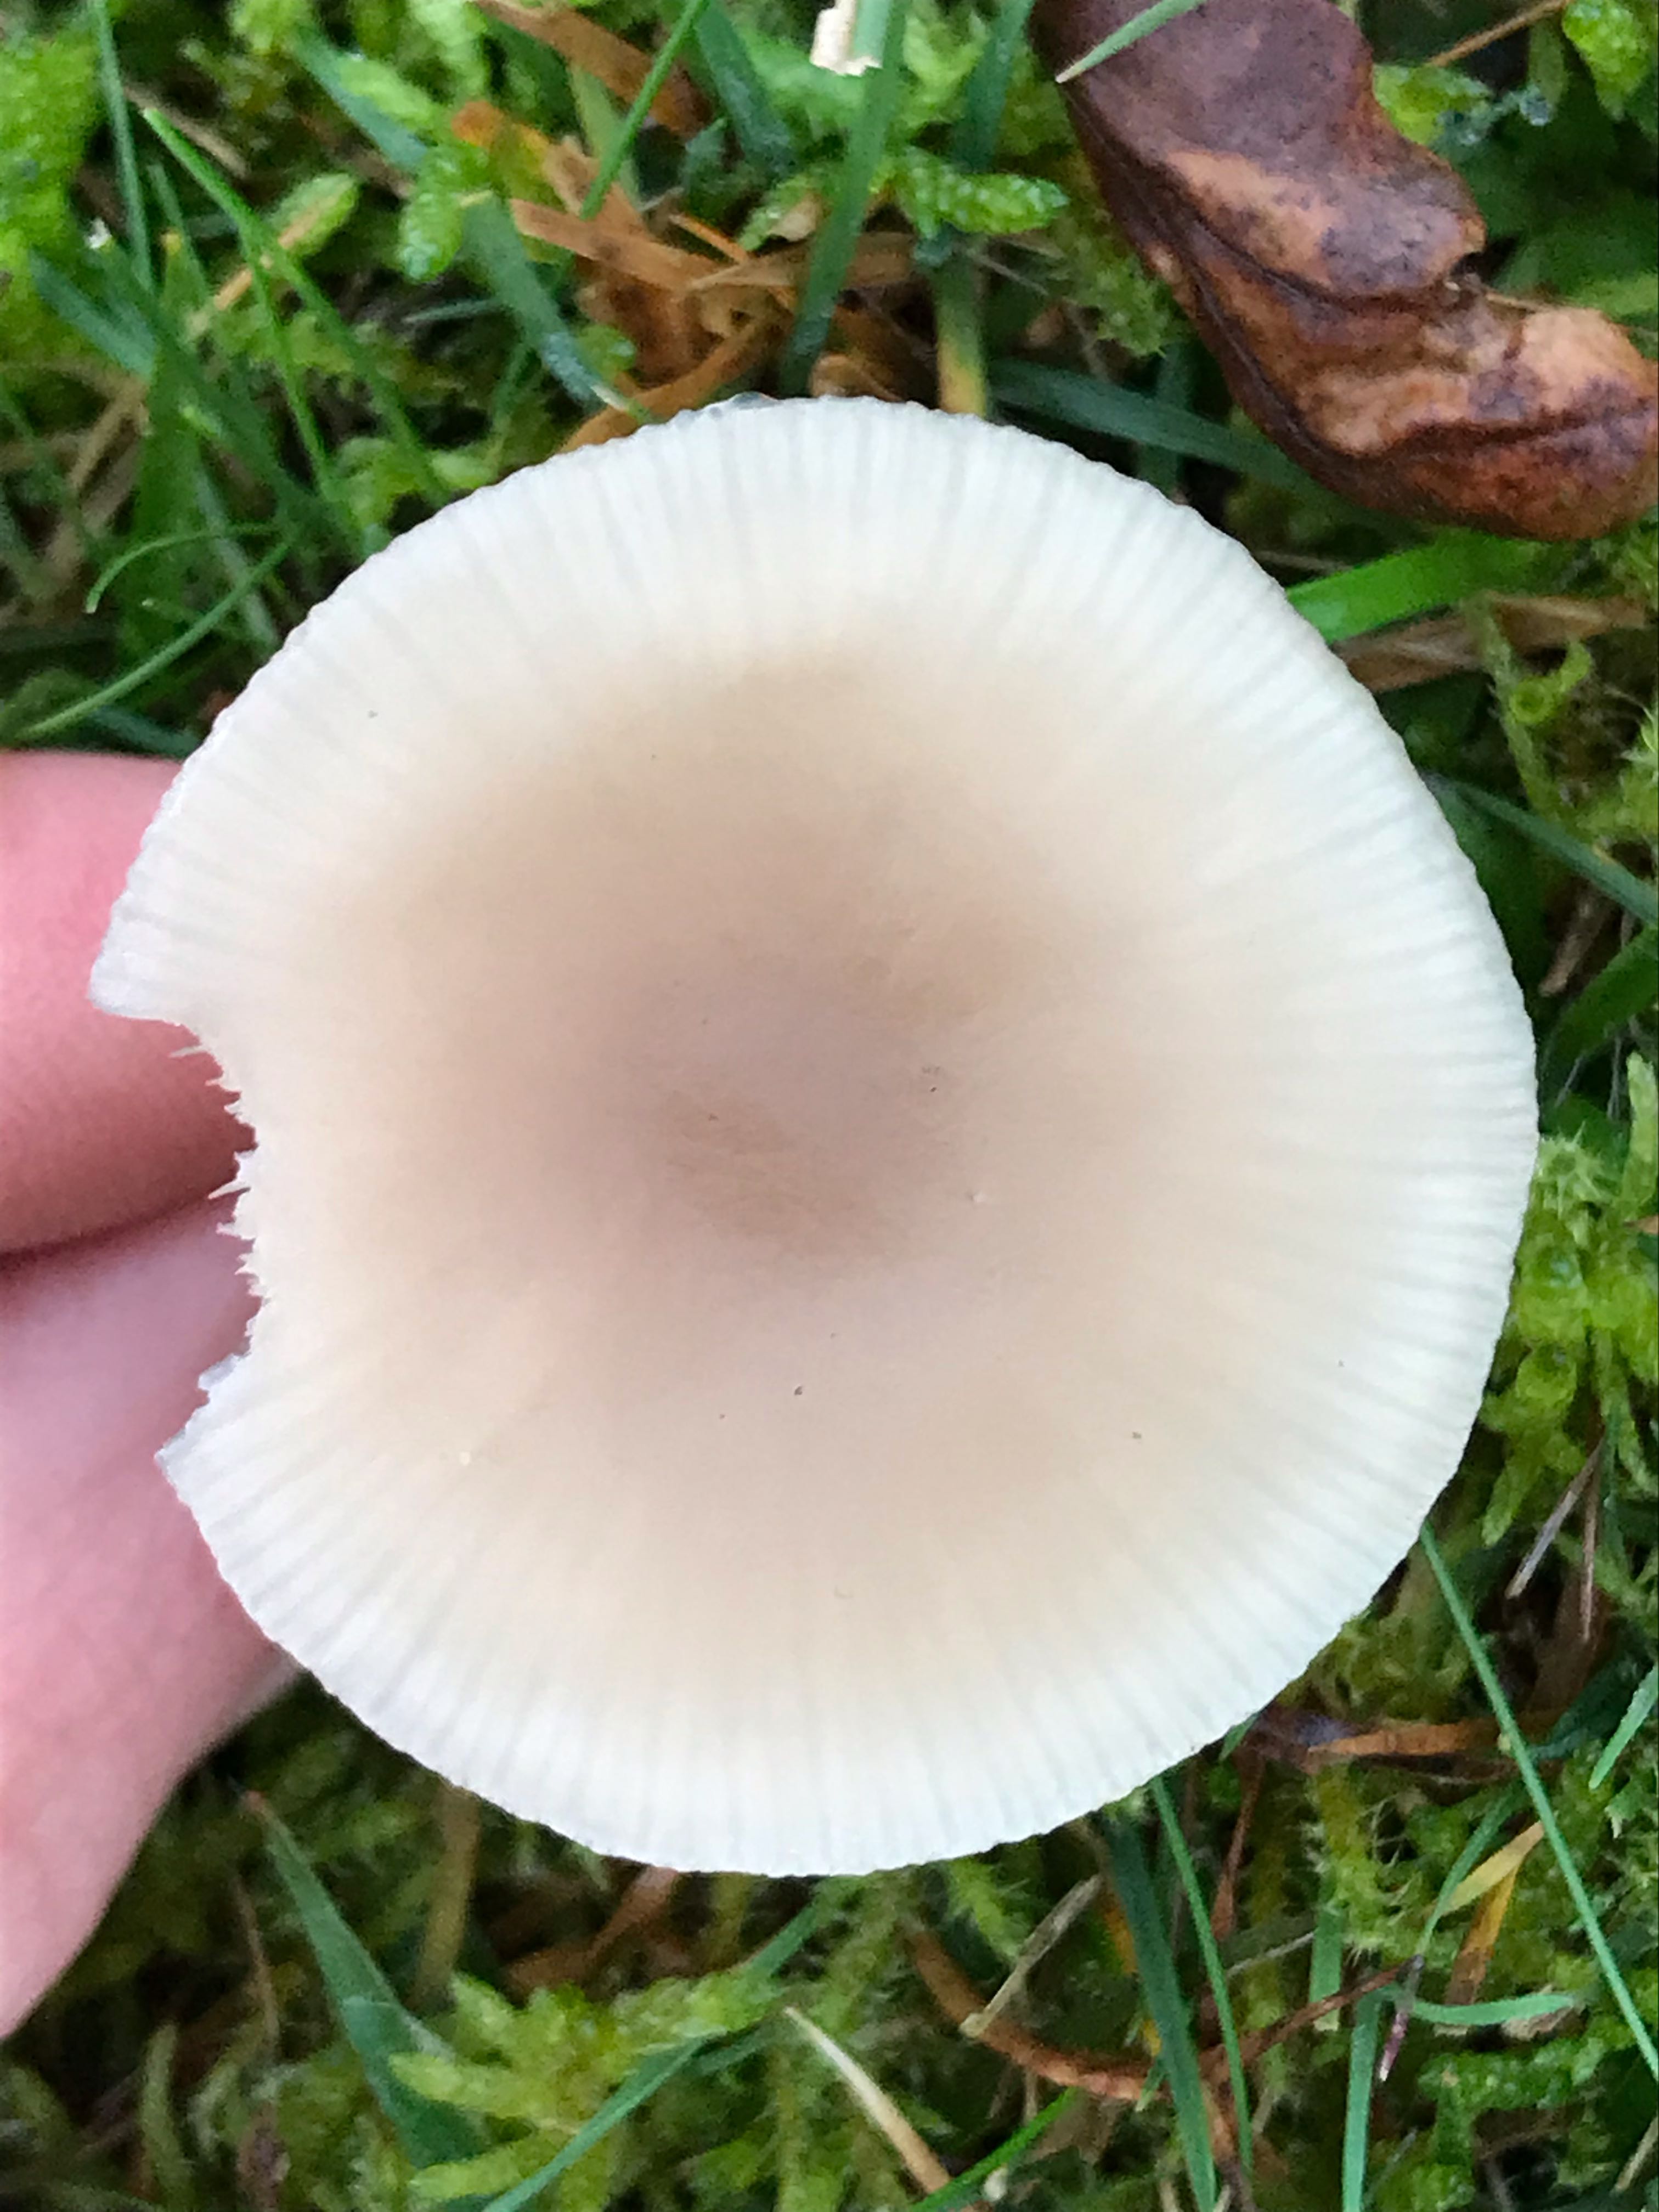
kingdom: Fungi
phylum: Basidiomycota
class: Agaricomycetes
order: Agaricales
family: Tricholomataceae
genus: Clitocybe
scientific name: Clitocybe fragrans
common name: vellugtende tragthat
